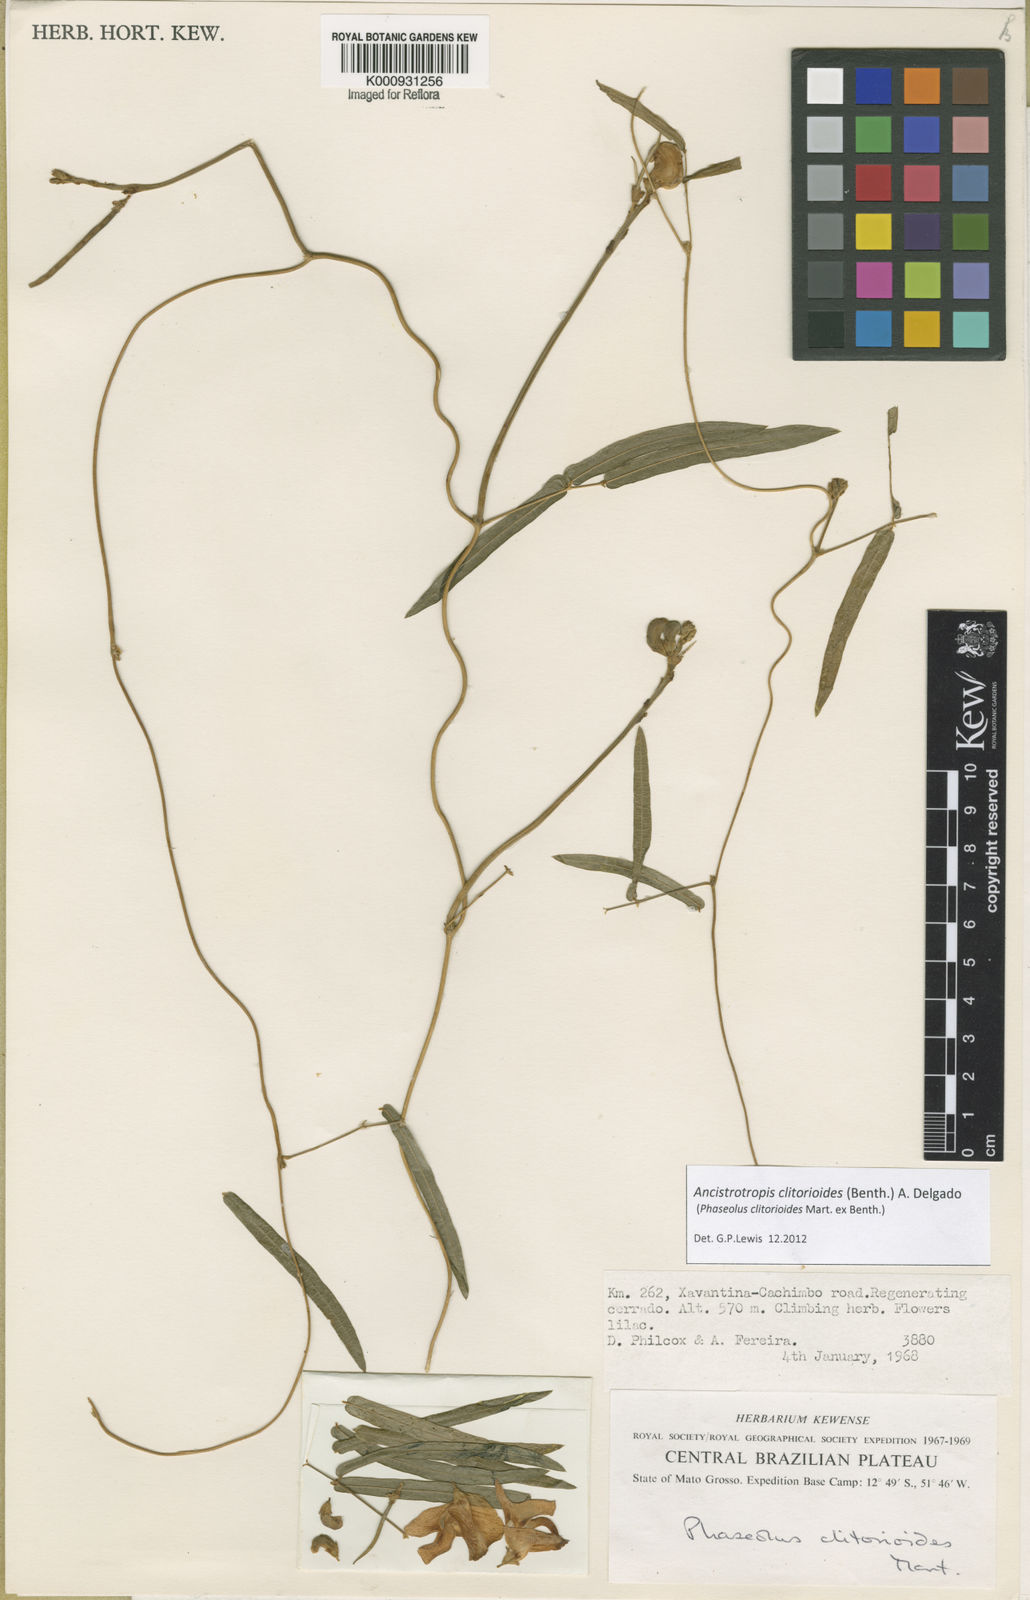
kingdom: Plantae
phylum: Tracheophyta
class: Magnoliopsida
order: Fabales
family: Fabaceae
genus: Ancistrotropis
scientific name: Ancistrotropis clitorioides
